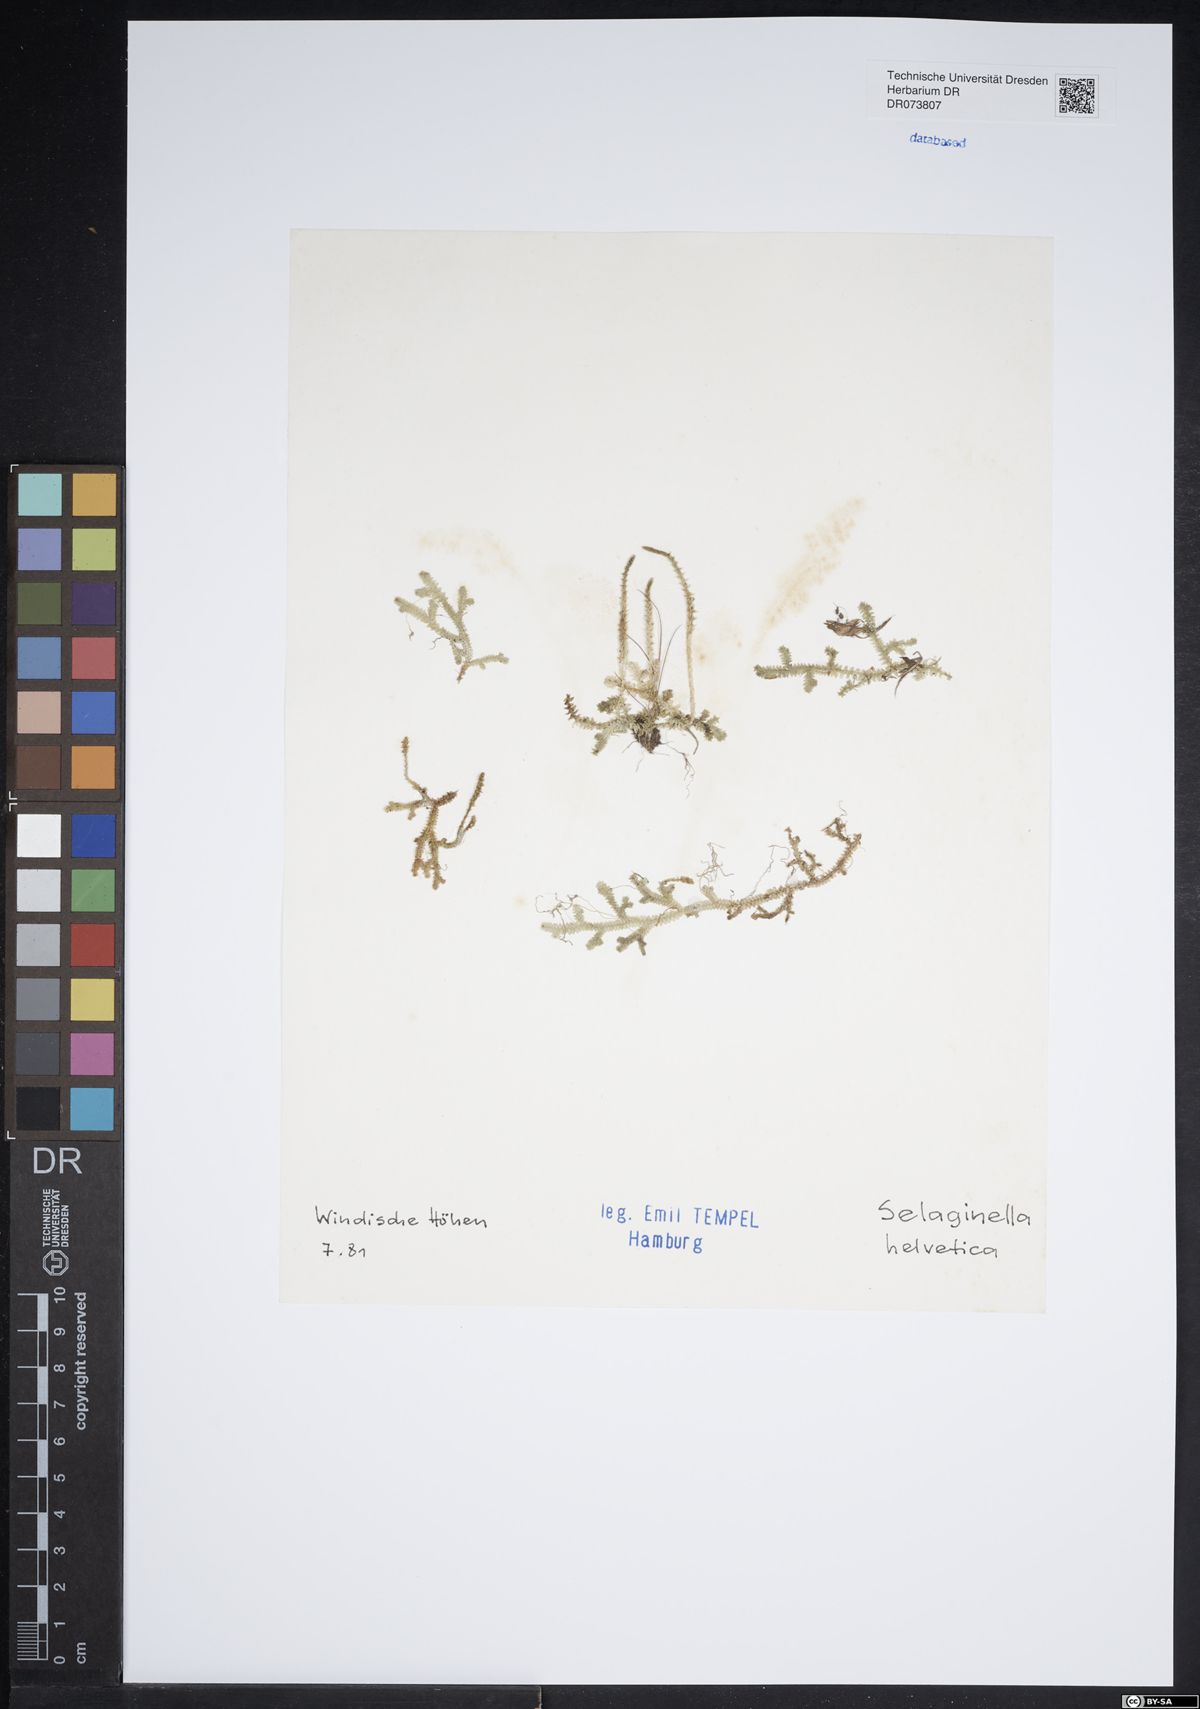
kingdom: Plantae
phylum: Tracheophyta
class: Lycopodiopsida
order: Selaginellales
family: Selaginellaceae
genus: Selaginella
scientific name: Selaginella helvetica
